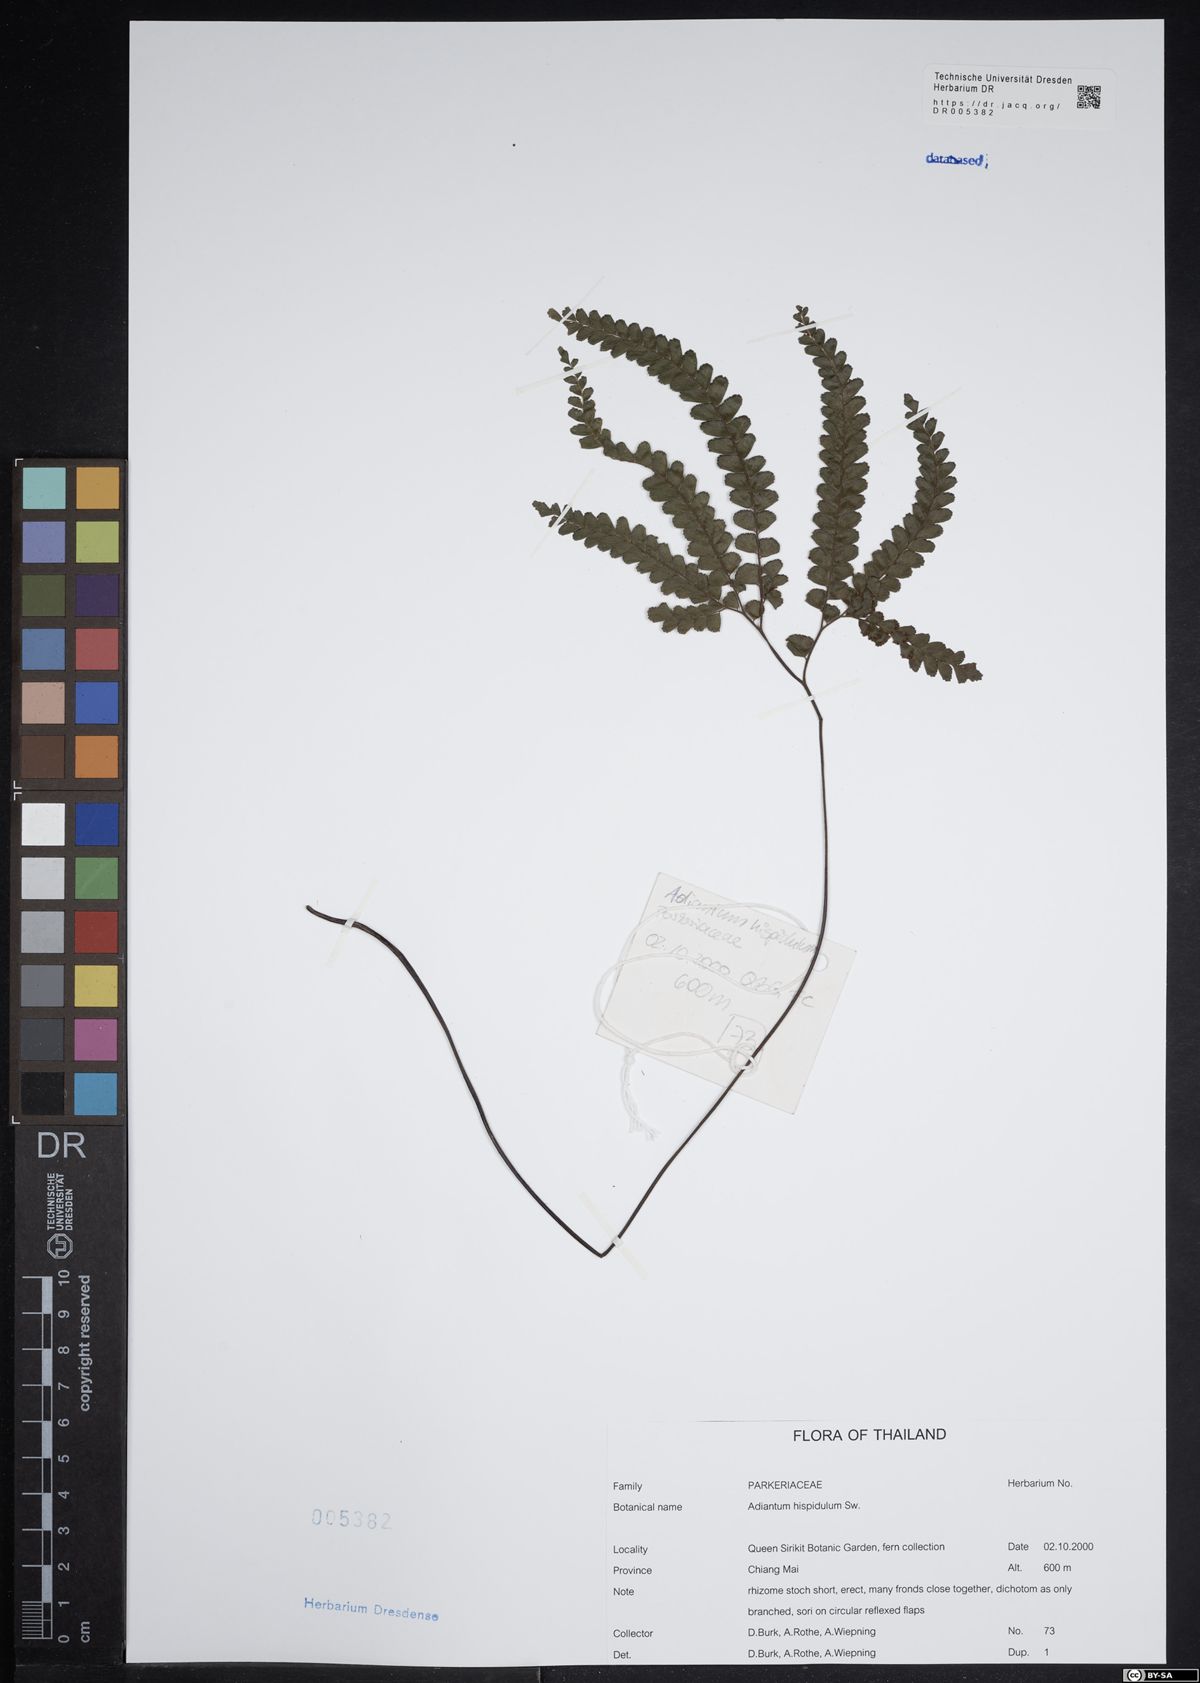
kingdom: Plantae
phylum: Tracheophyta
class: Polypodiopsida
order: Polypodiales
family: Pteridaceae
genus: Adiantum
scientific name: Adiantum hispidulum
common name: Rough maidenhair
